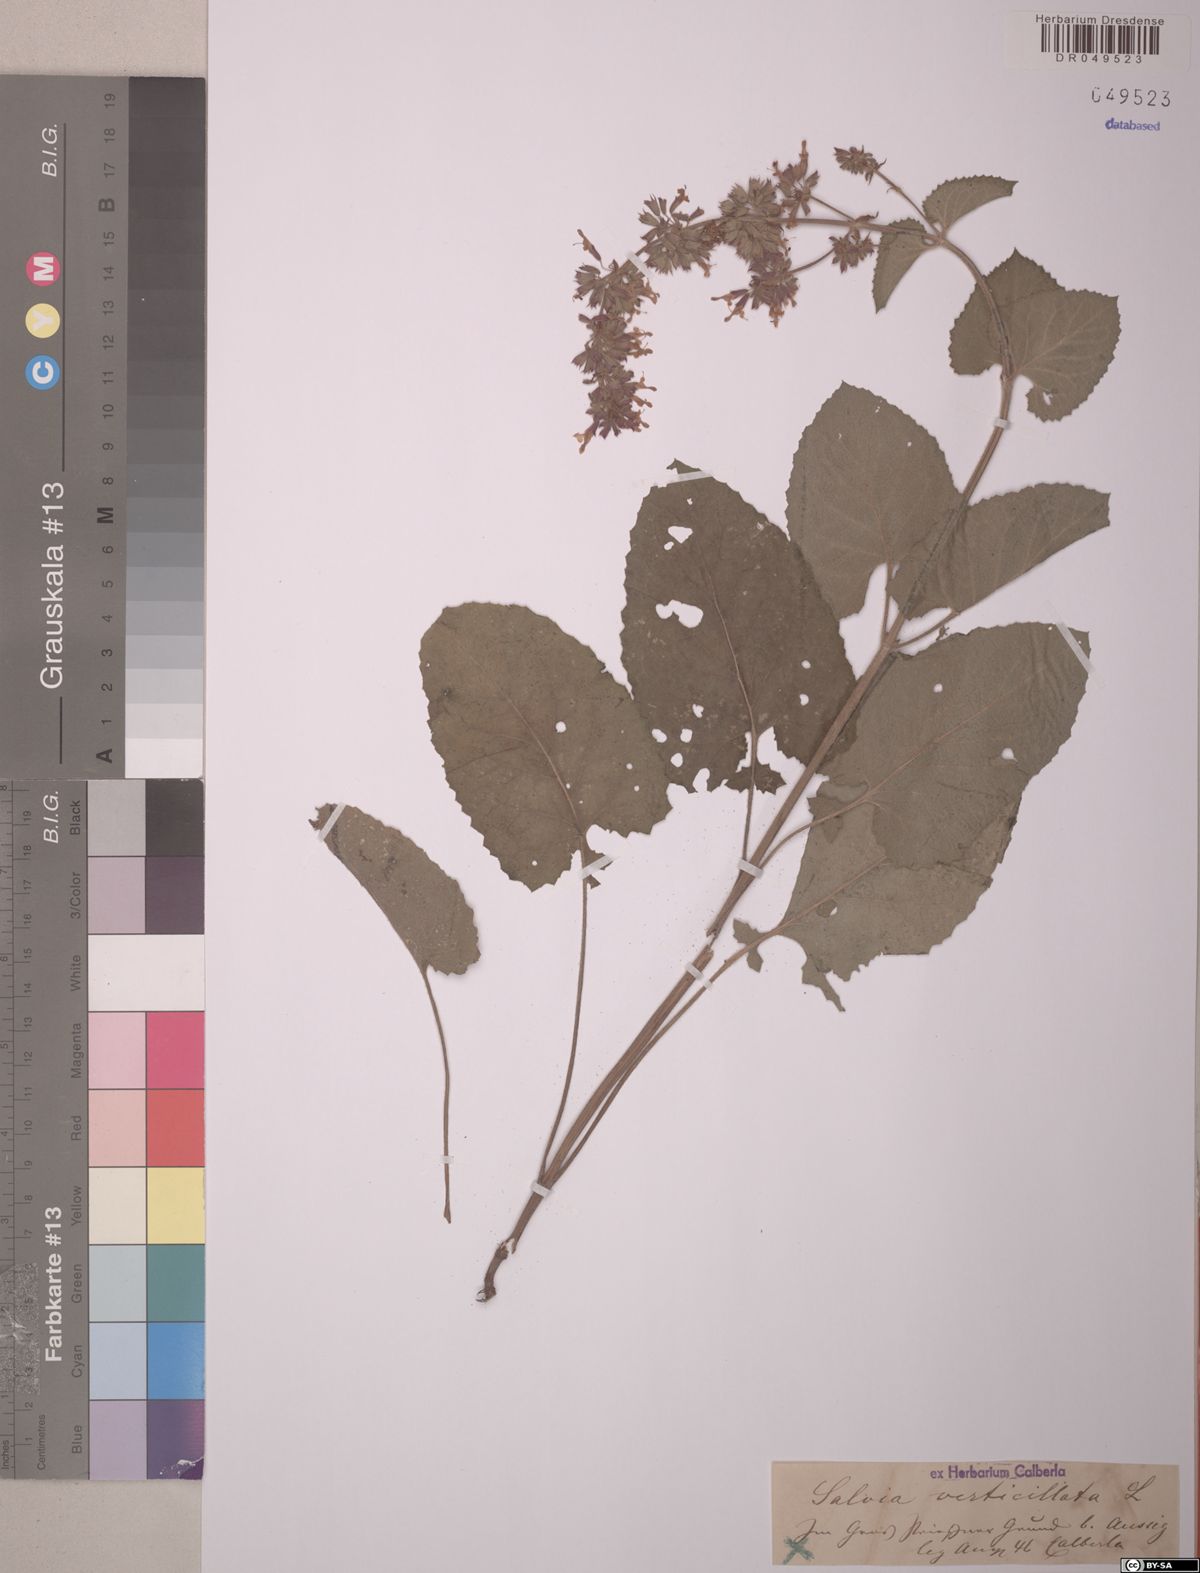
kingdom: Plantae
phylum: Tracheophyta
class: Magnoliopsida
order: Lamiales
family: Lamiaceae
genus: Salvia
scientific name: Salvia verticillata
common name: Whorled clary
